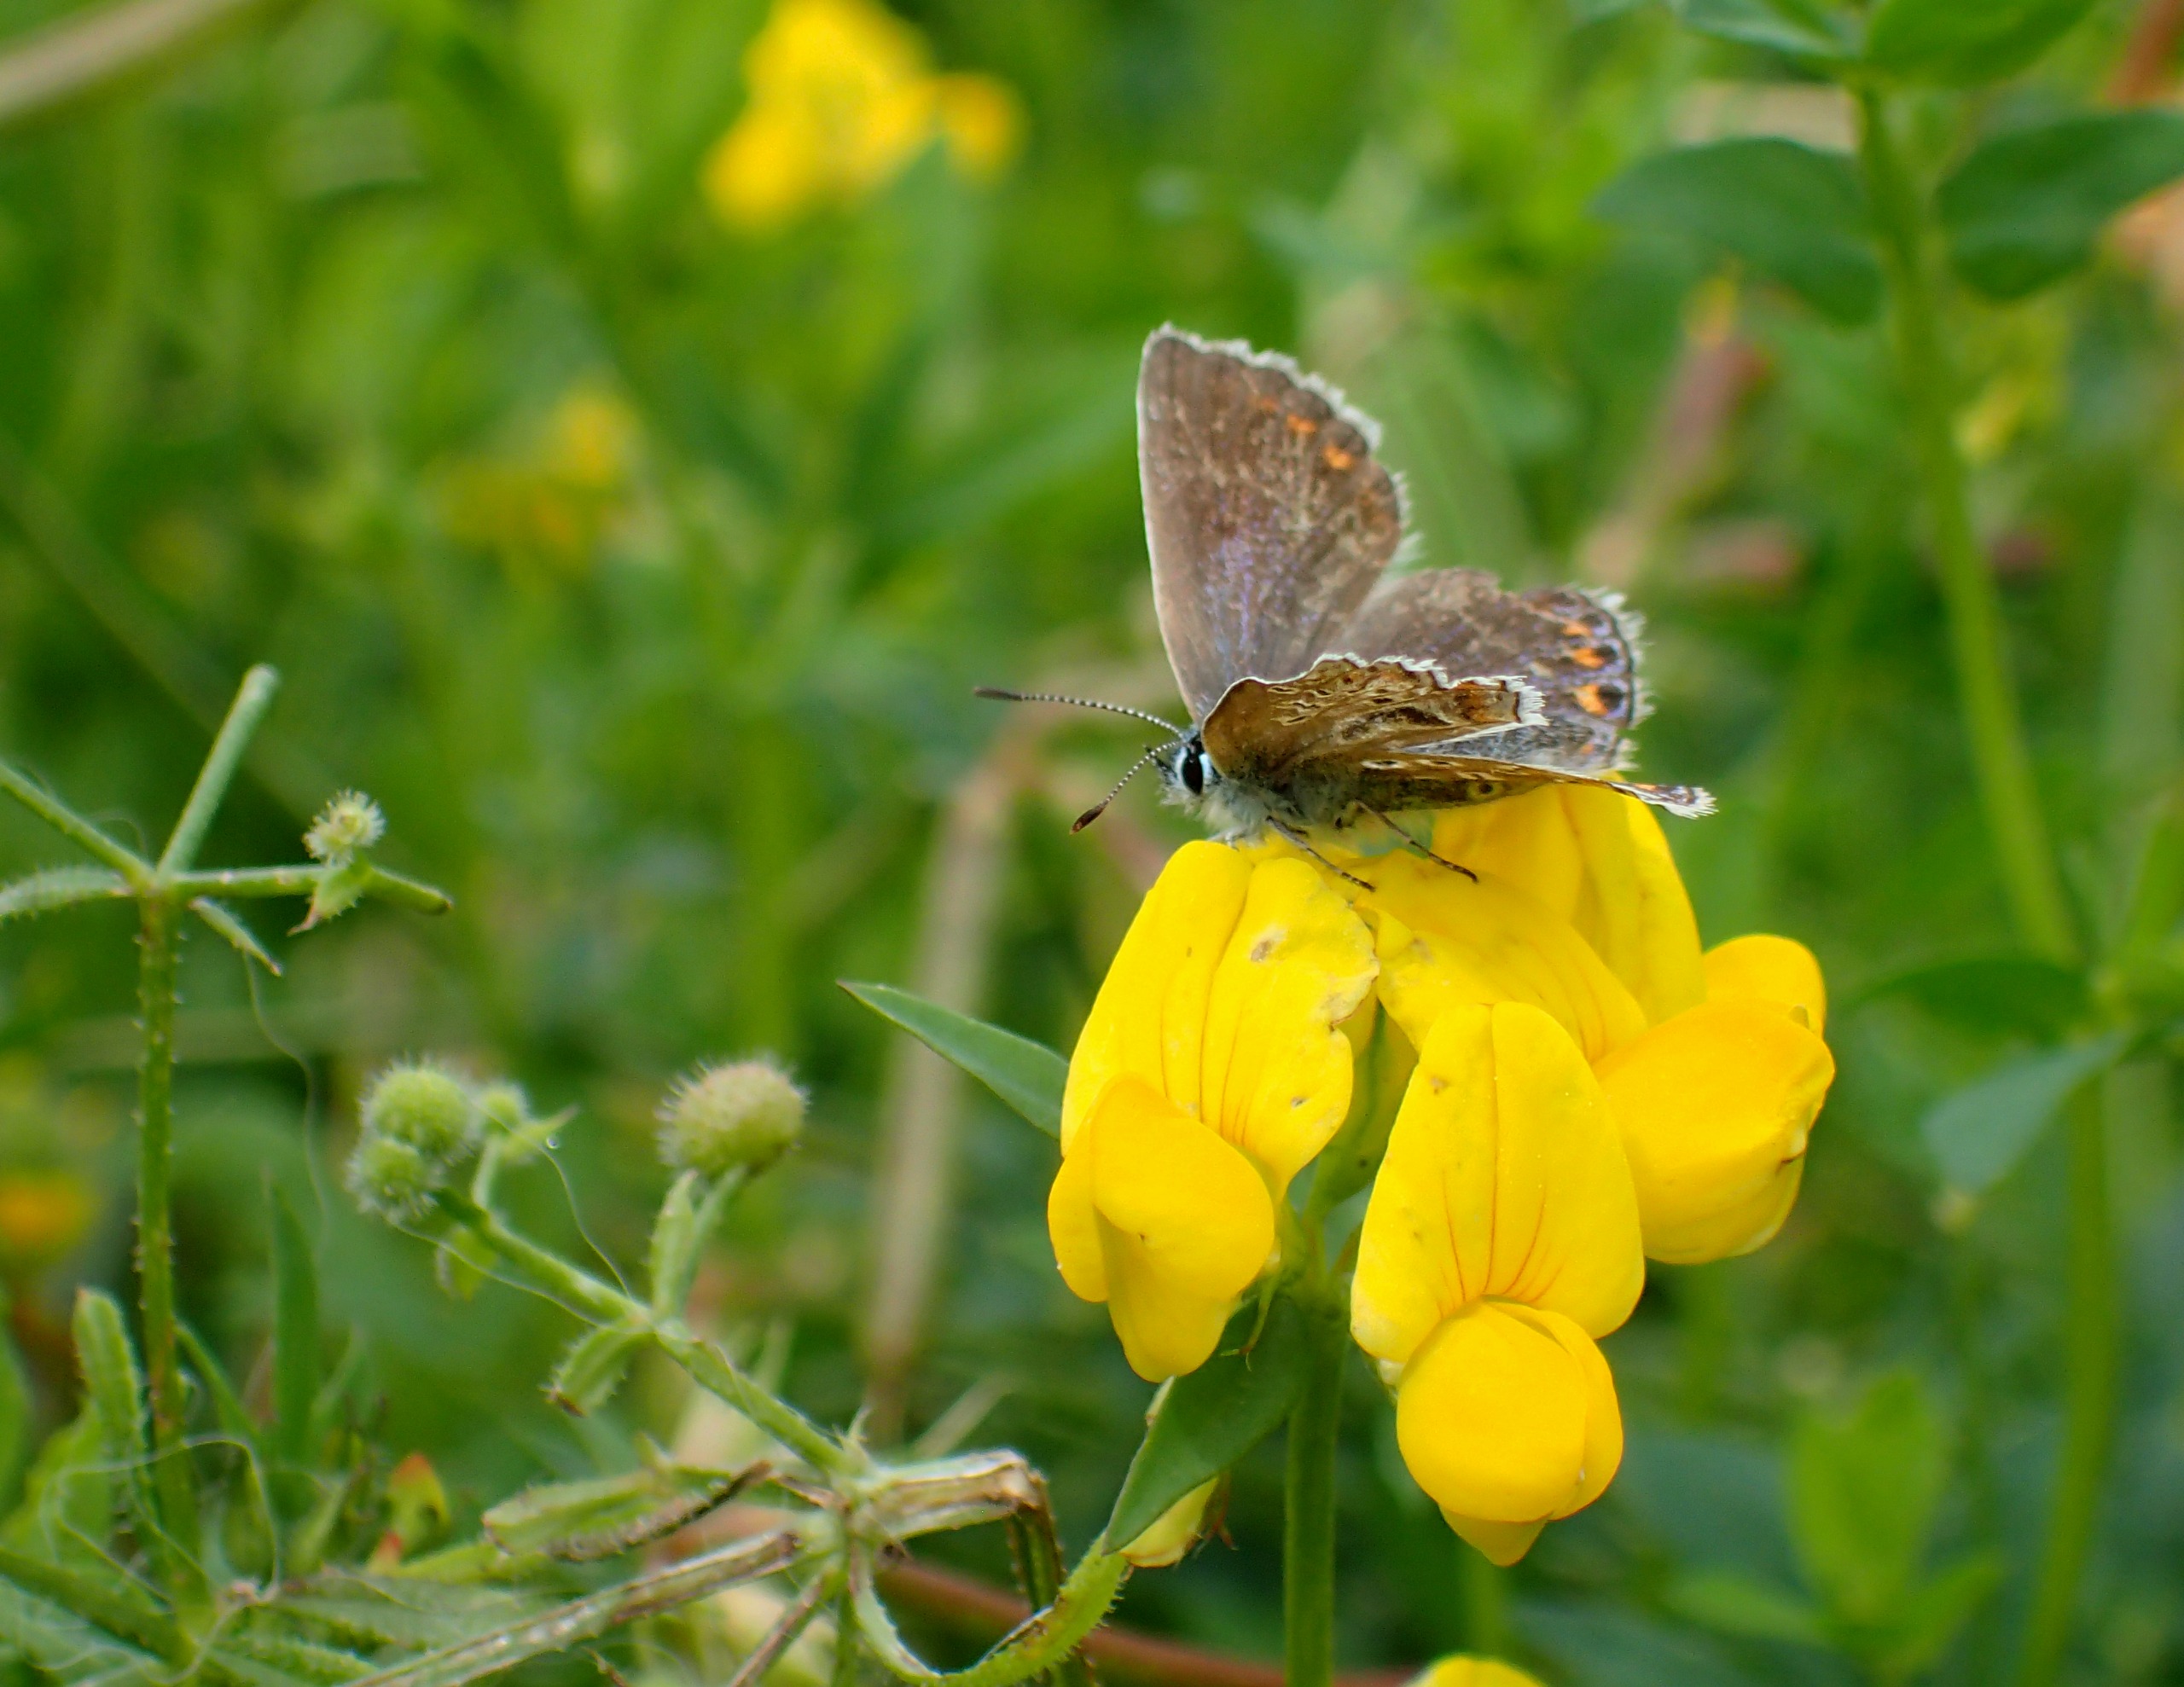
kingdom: Animalia
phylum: Arthropoda
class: Insecta
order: Lepidoptera
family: Lycaenidae
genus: Polyommatus
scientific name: Polyommatus icarus
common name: Almindelig blåfugl
